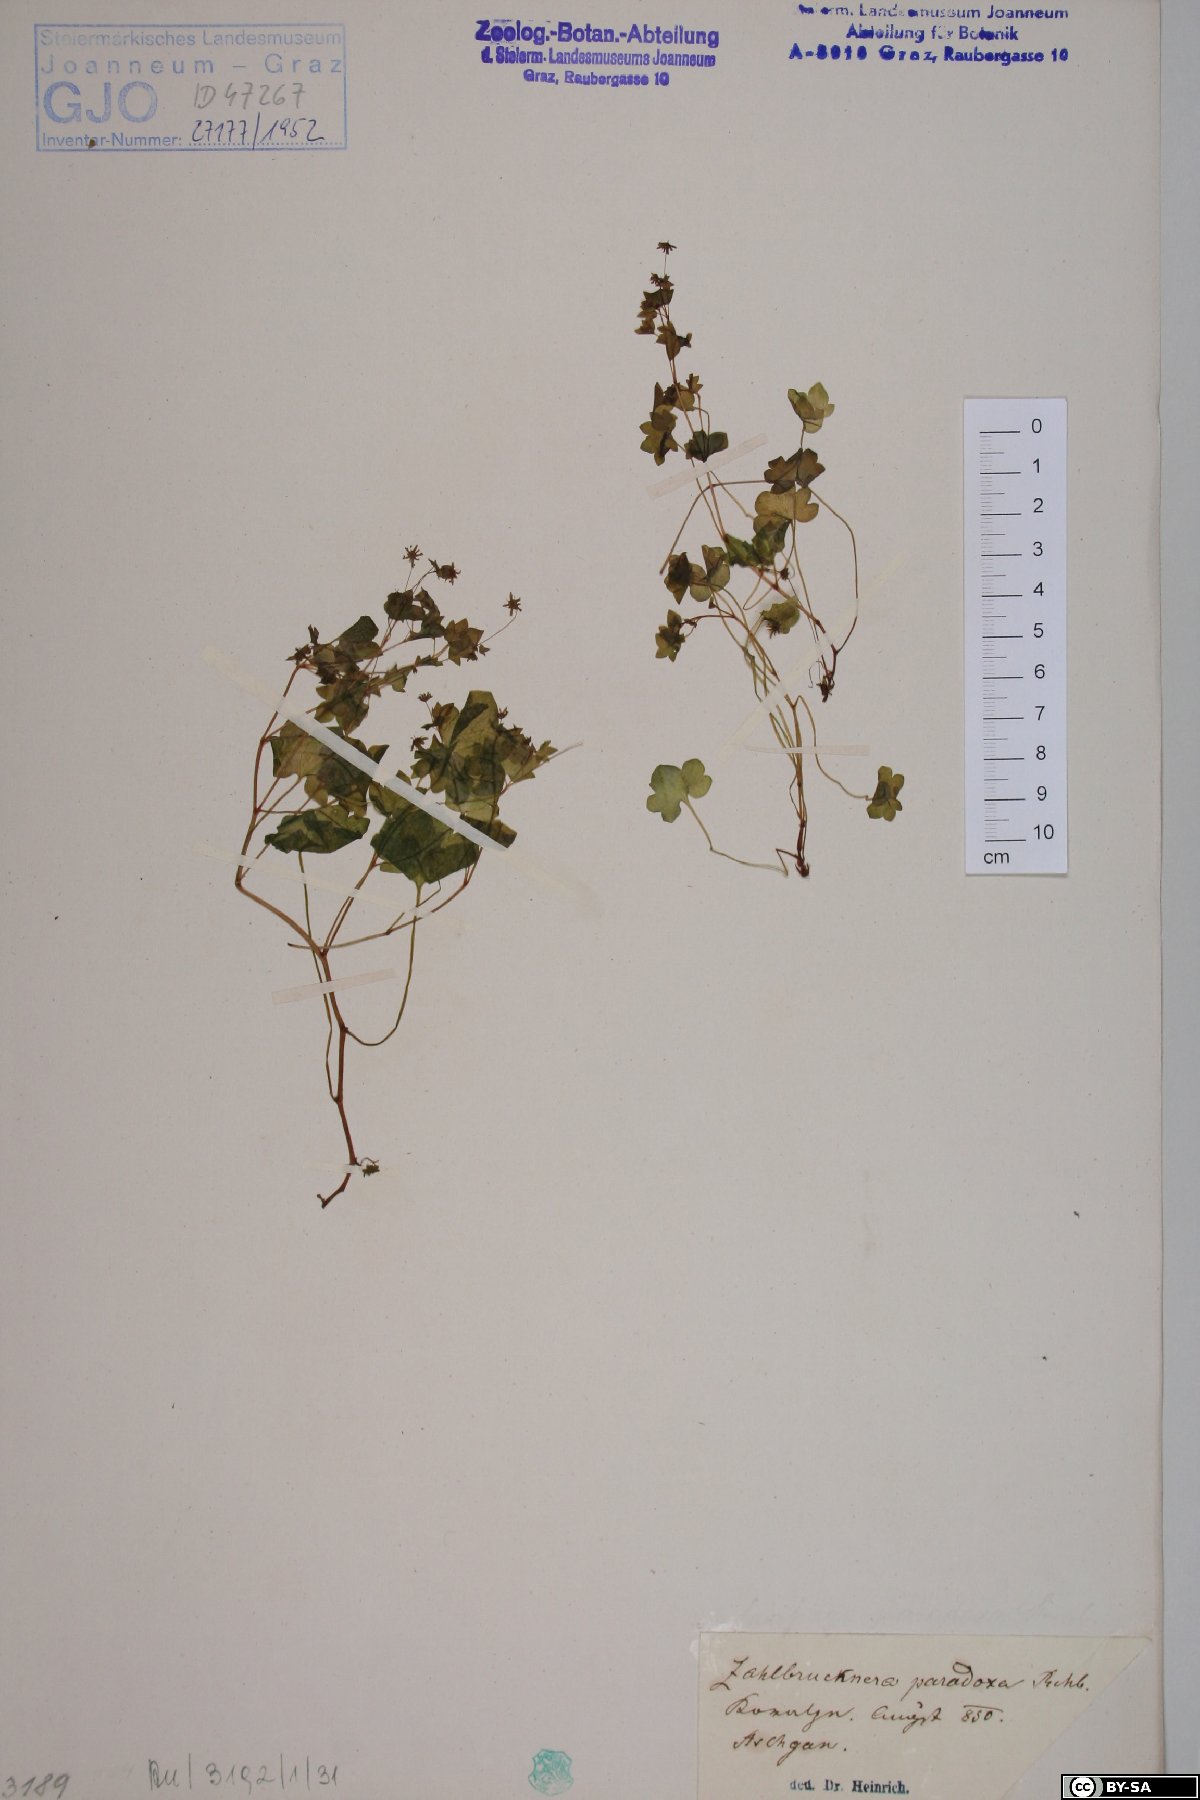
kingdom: Plantae
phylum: Tracheophyta
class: Magnoliopsida
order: Saxifragales
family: Saxifragaceae
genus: Saxifraga
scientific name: Saxifraga paradoxa
